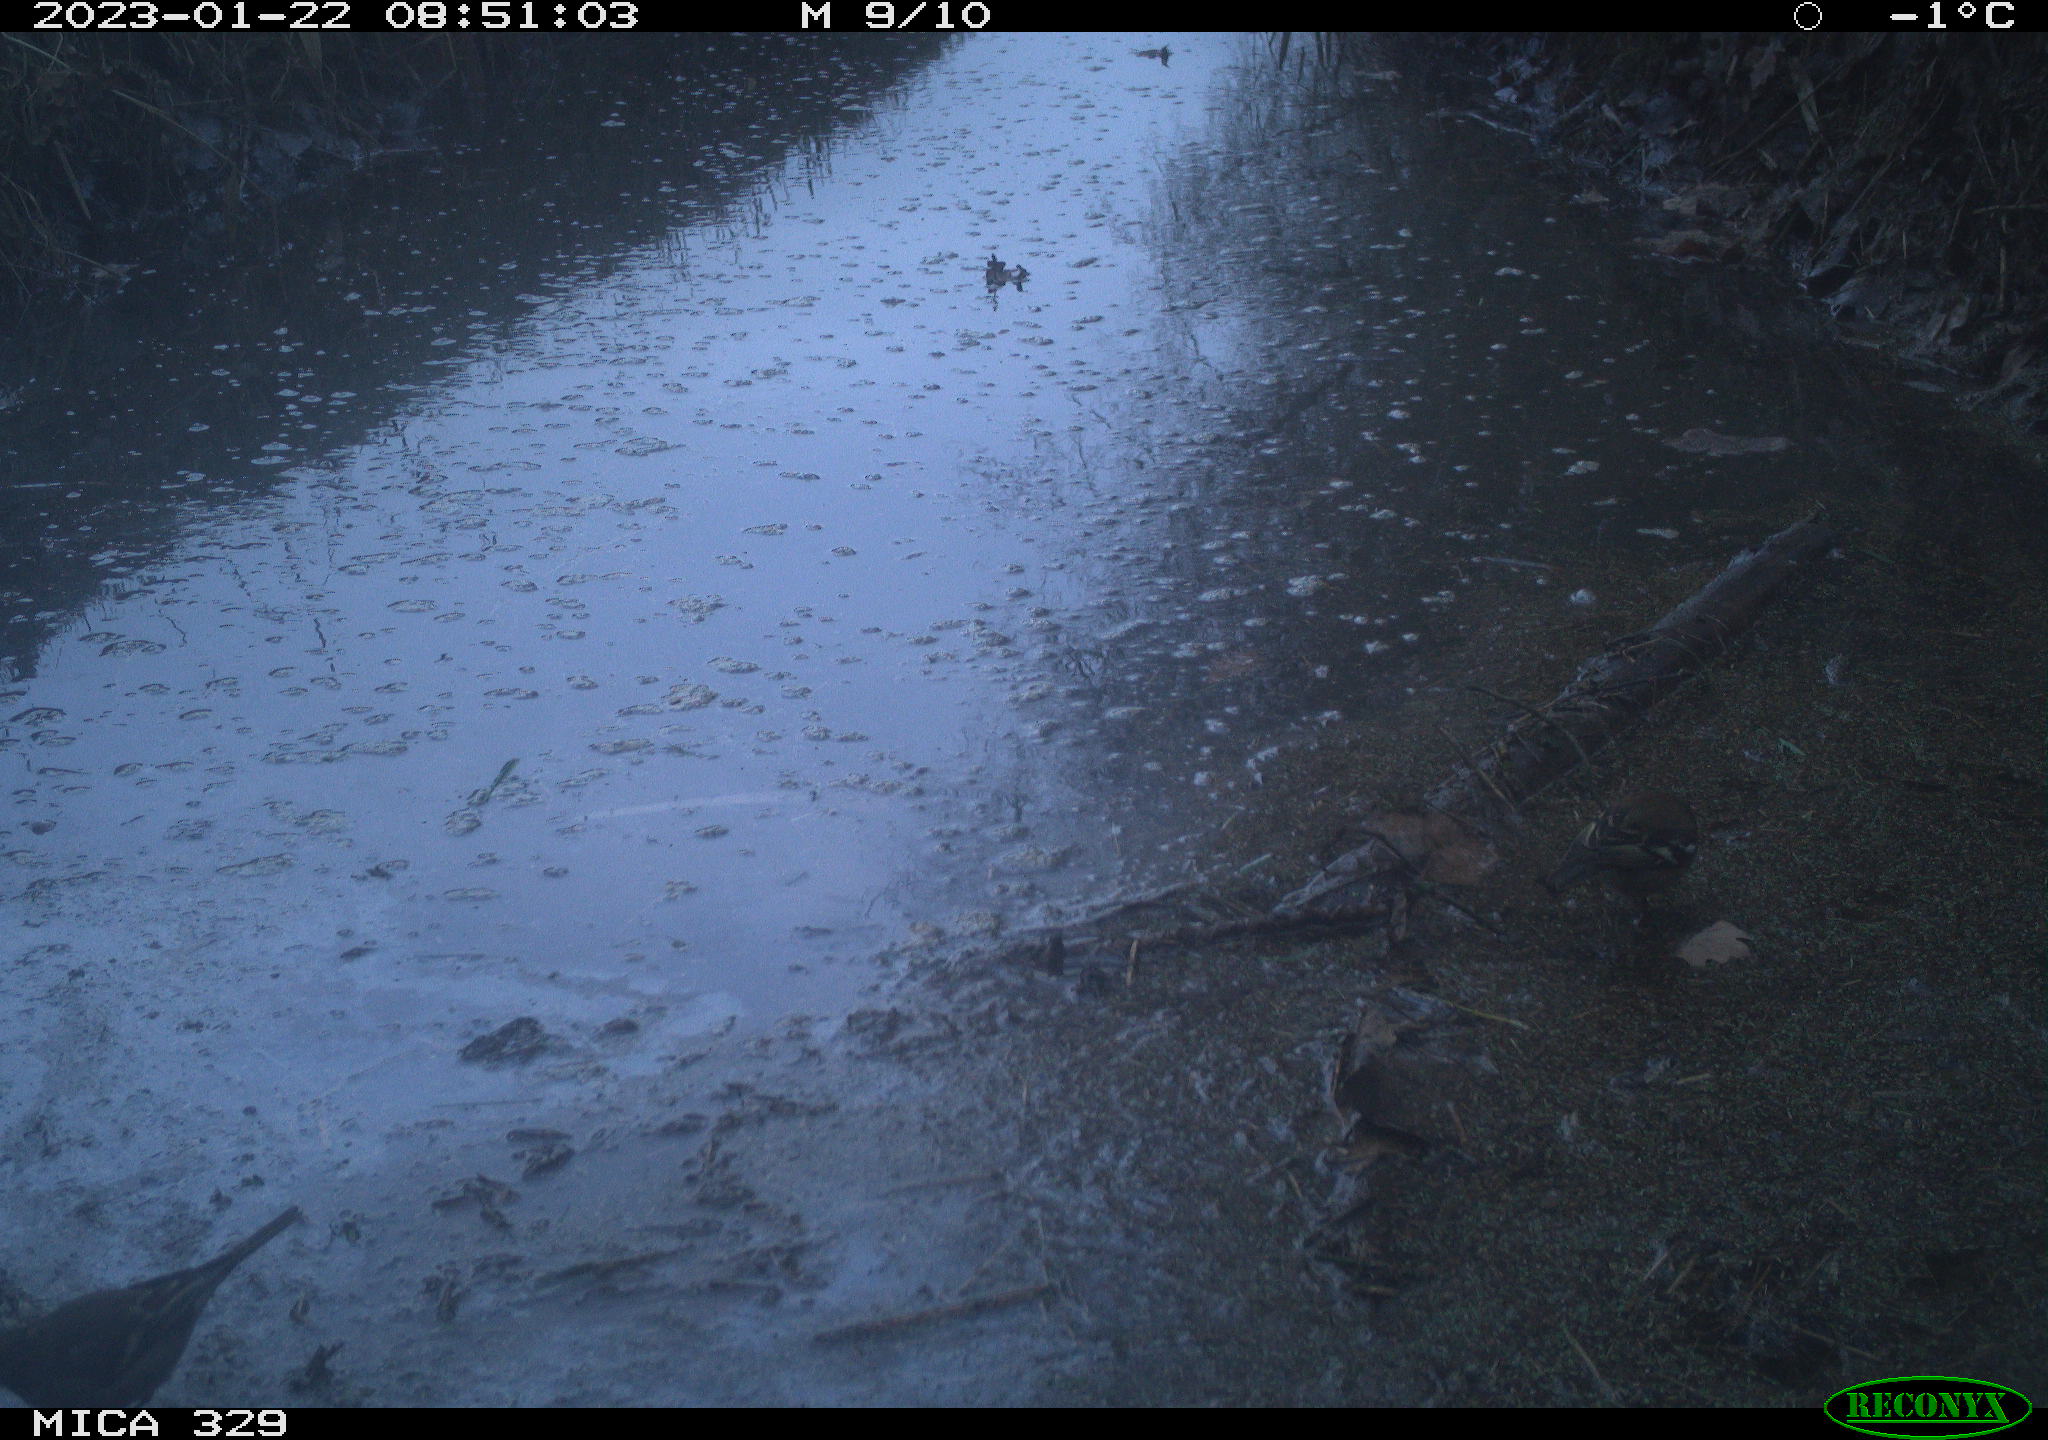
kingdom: Animalia
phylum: Chordata
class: Aves
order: Passeriformes
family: Fringillidae
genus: Fringilla
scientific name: Fringilla coelebs
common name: Common chaffinch
